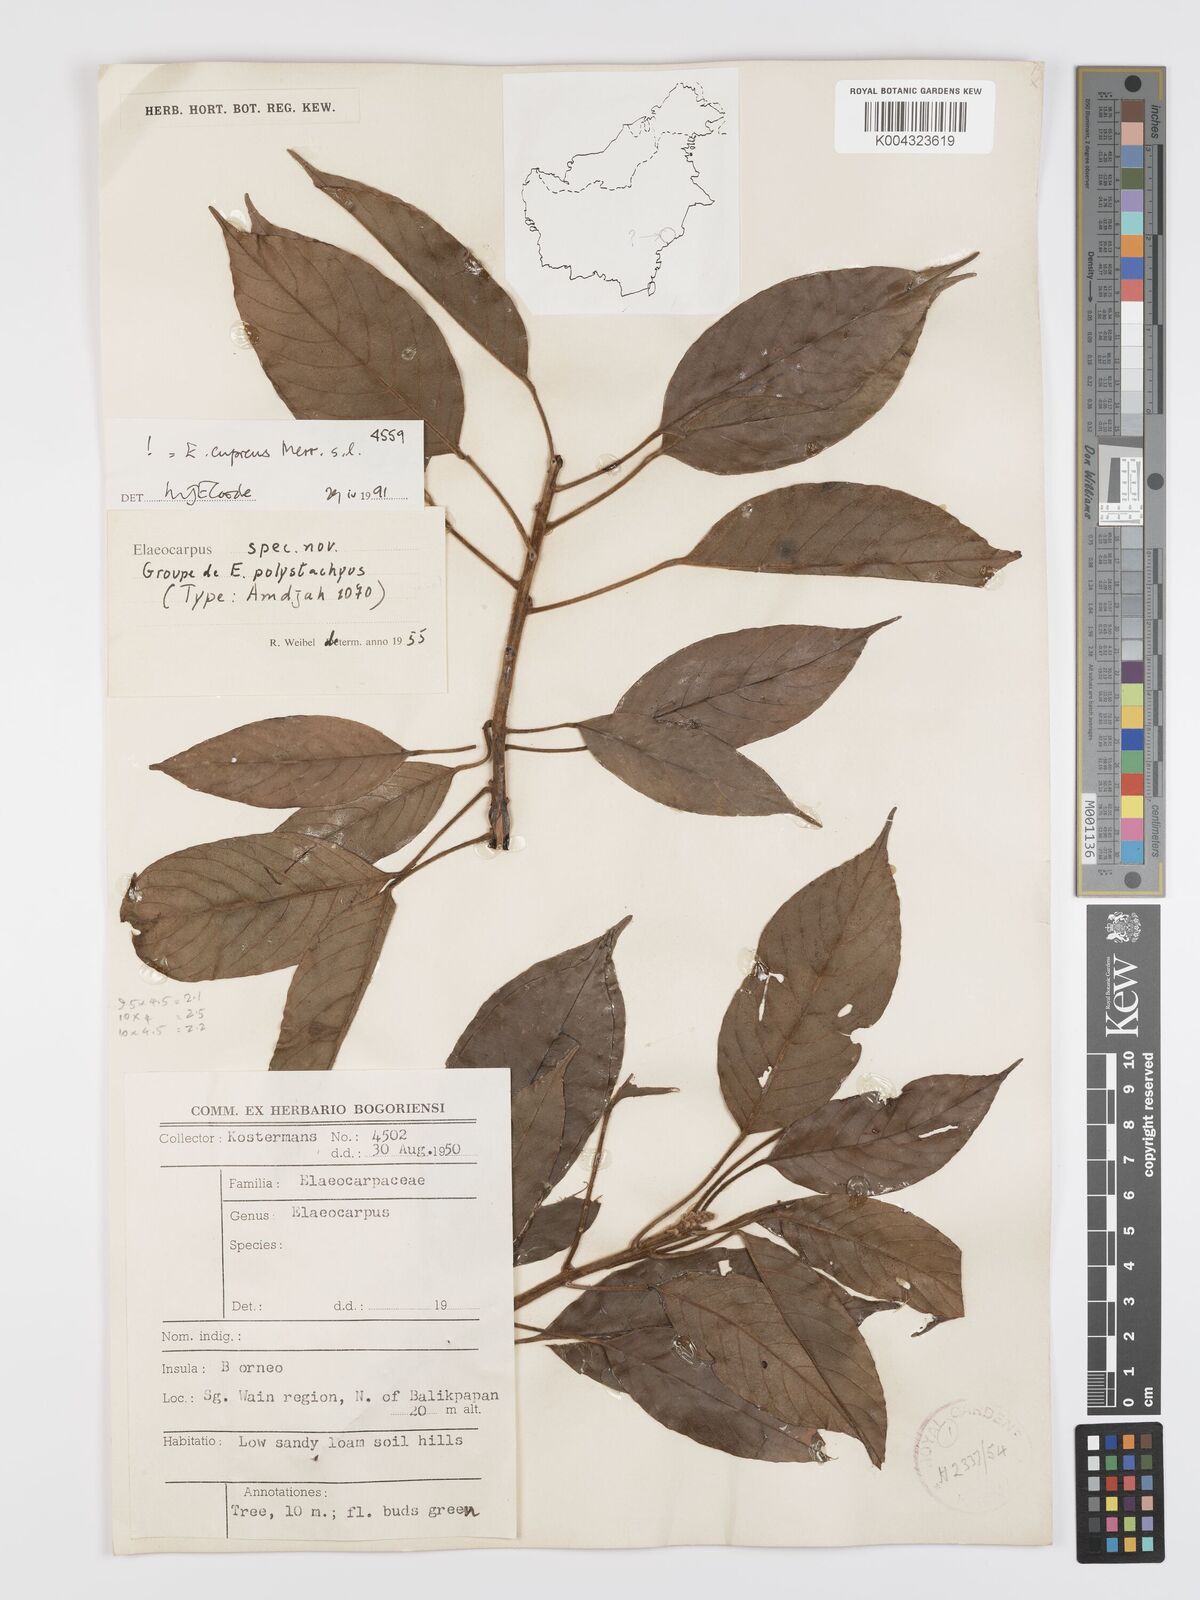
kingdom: Plantae
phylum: Tracheophyta
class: Magnoliopsida
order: Oxalidales
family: Elaeocarpaceae
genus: Elaeocarpus
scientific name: Elaeocarpus cupreus
